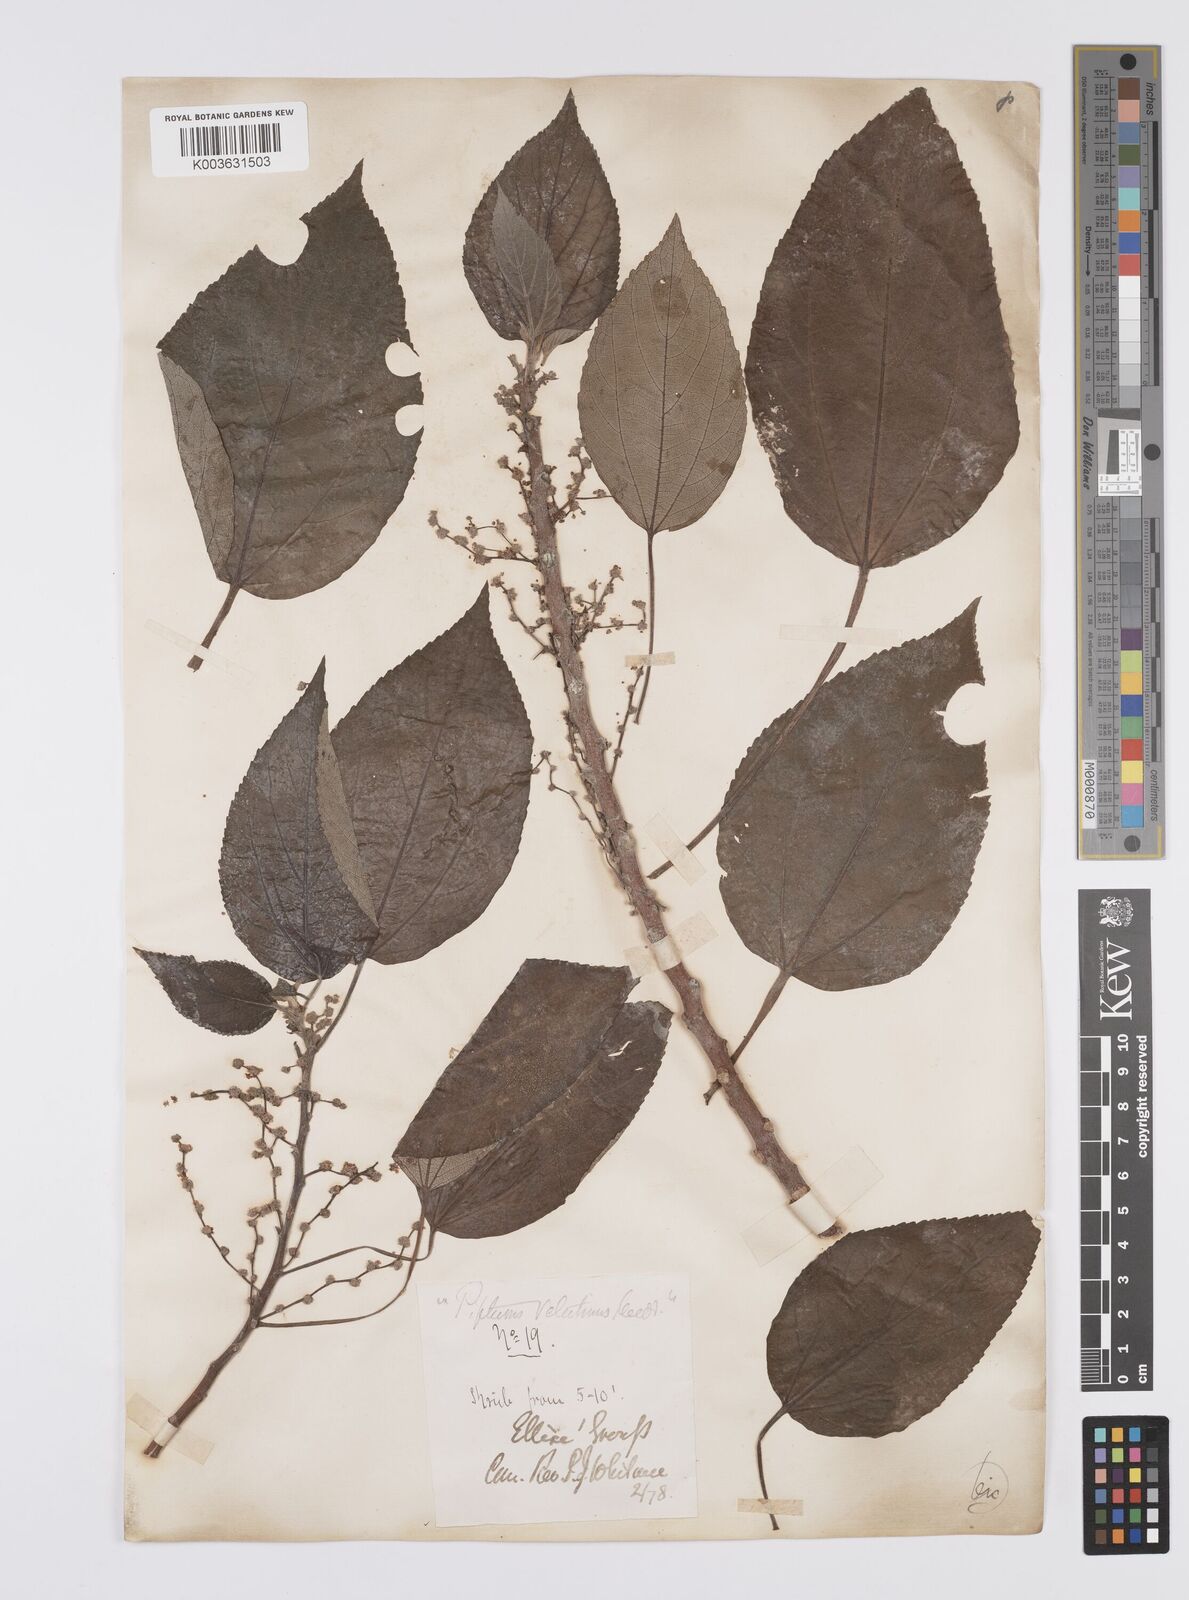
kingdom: Plantae
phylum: Tracheophyta
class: Magnoliopsida
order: Rosales
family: Urticaceae
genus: Pipturus
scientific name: Pipturus argenteus
